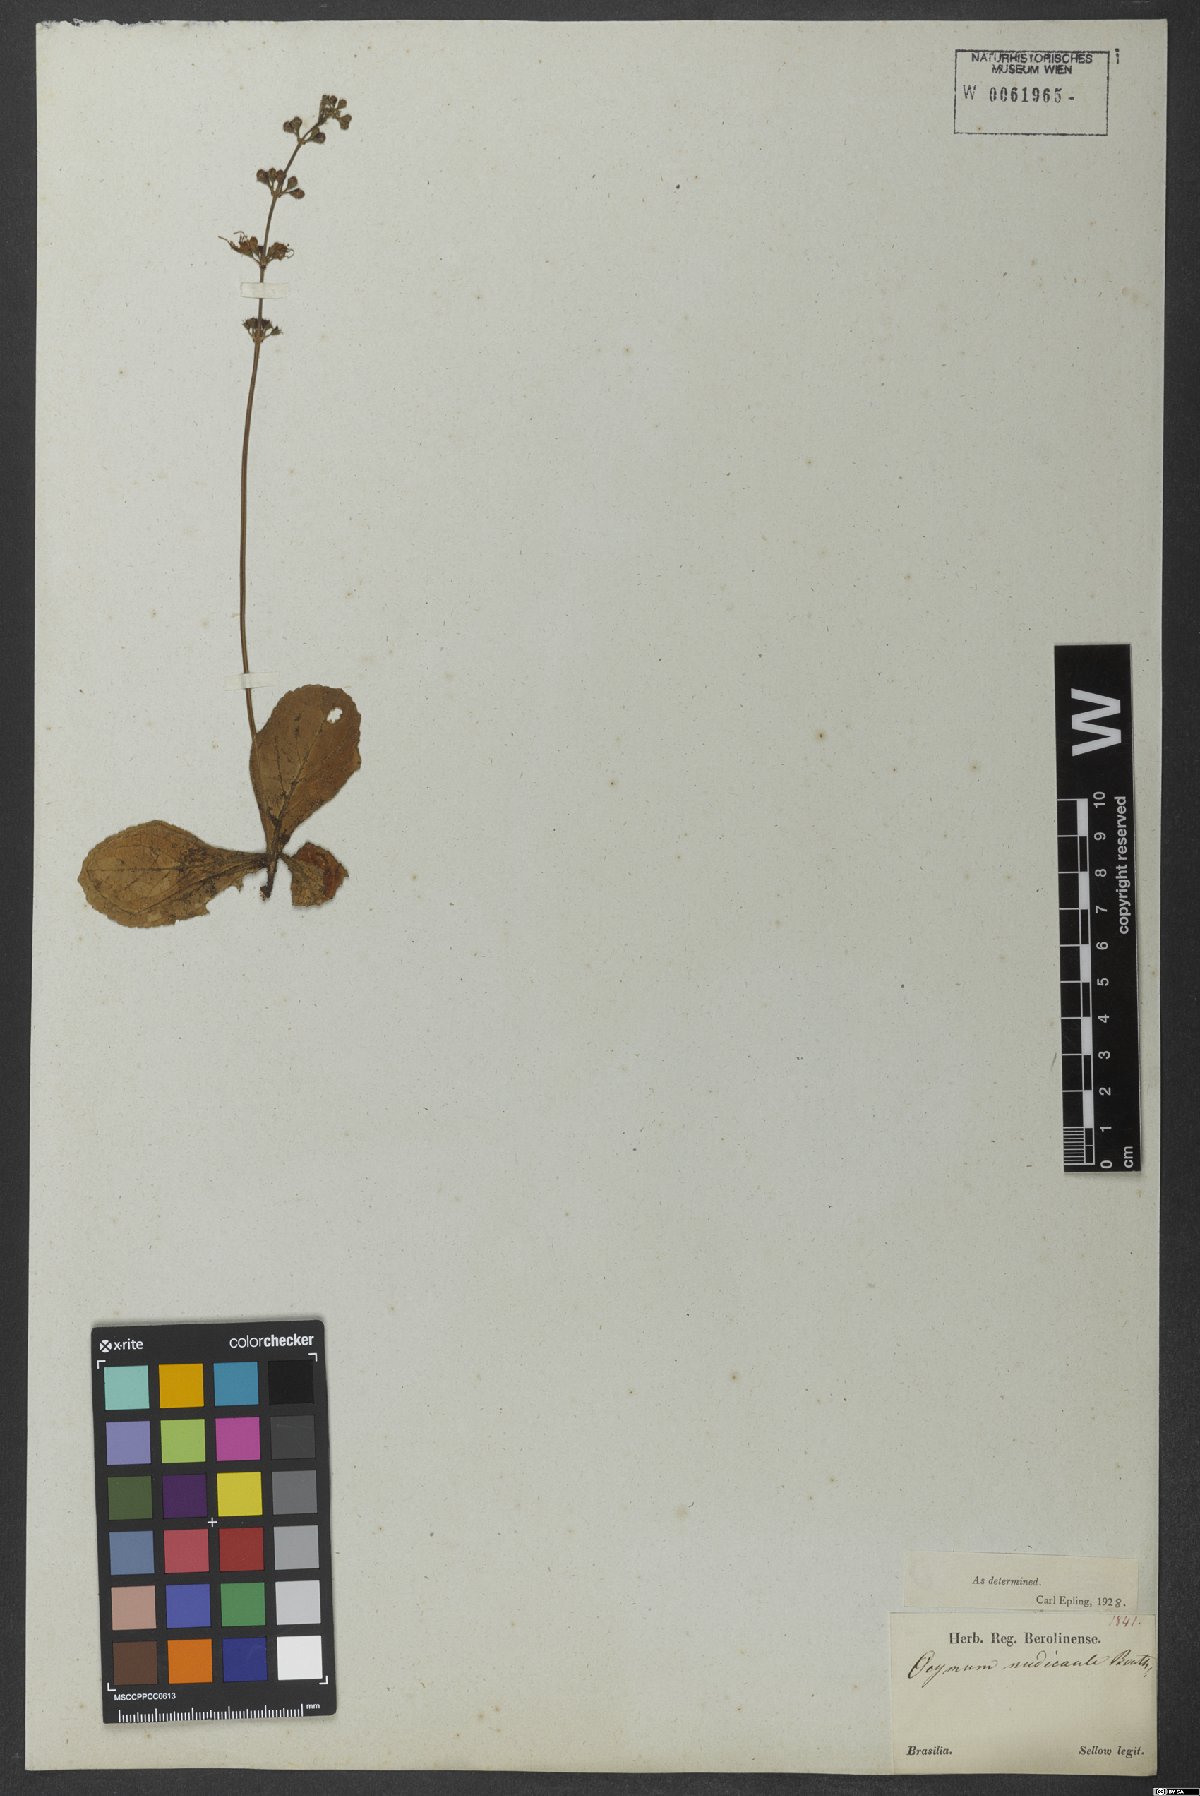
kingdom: Plantae
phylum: Tracheophyta
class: Magnoliopsida
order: Lamiales
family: Lamiaceae
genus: Ocimum
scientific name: Ocimum nudicaule
